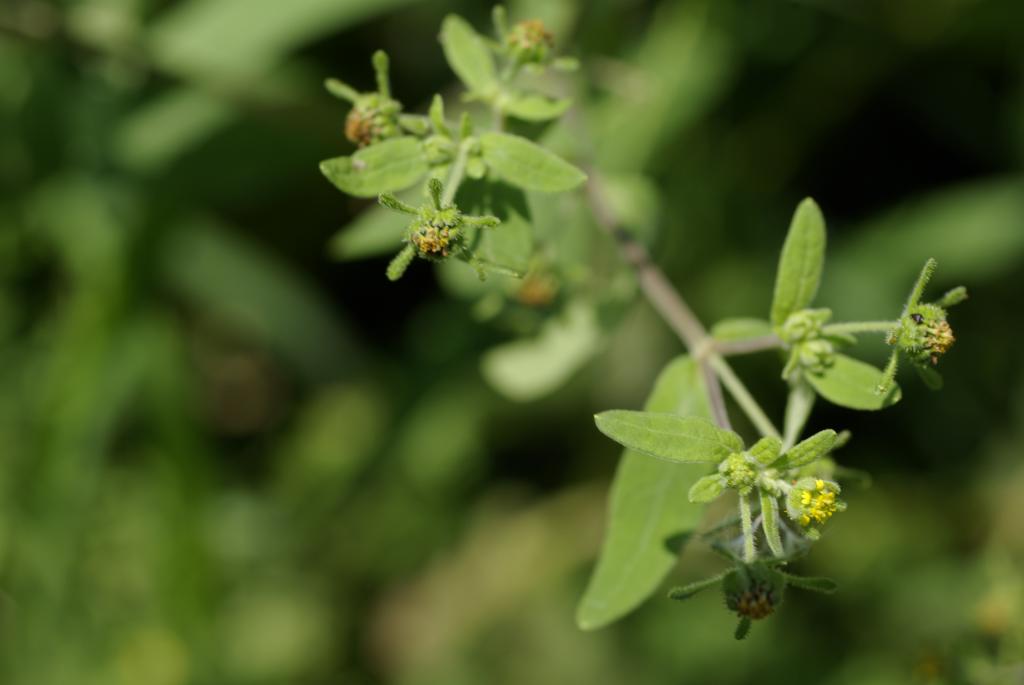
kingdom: Plantae
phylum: Tracheophyta
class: Magnoliopsida
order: Asterales
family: Asteraceae
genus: Sigesbeckia
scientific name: Sigesbeckia orientalis
